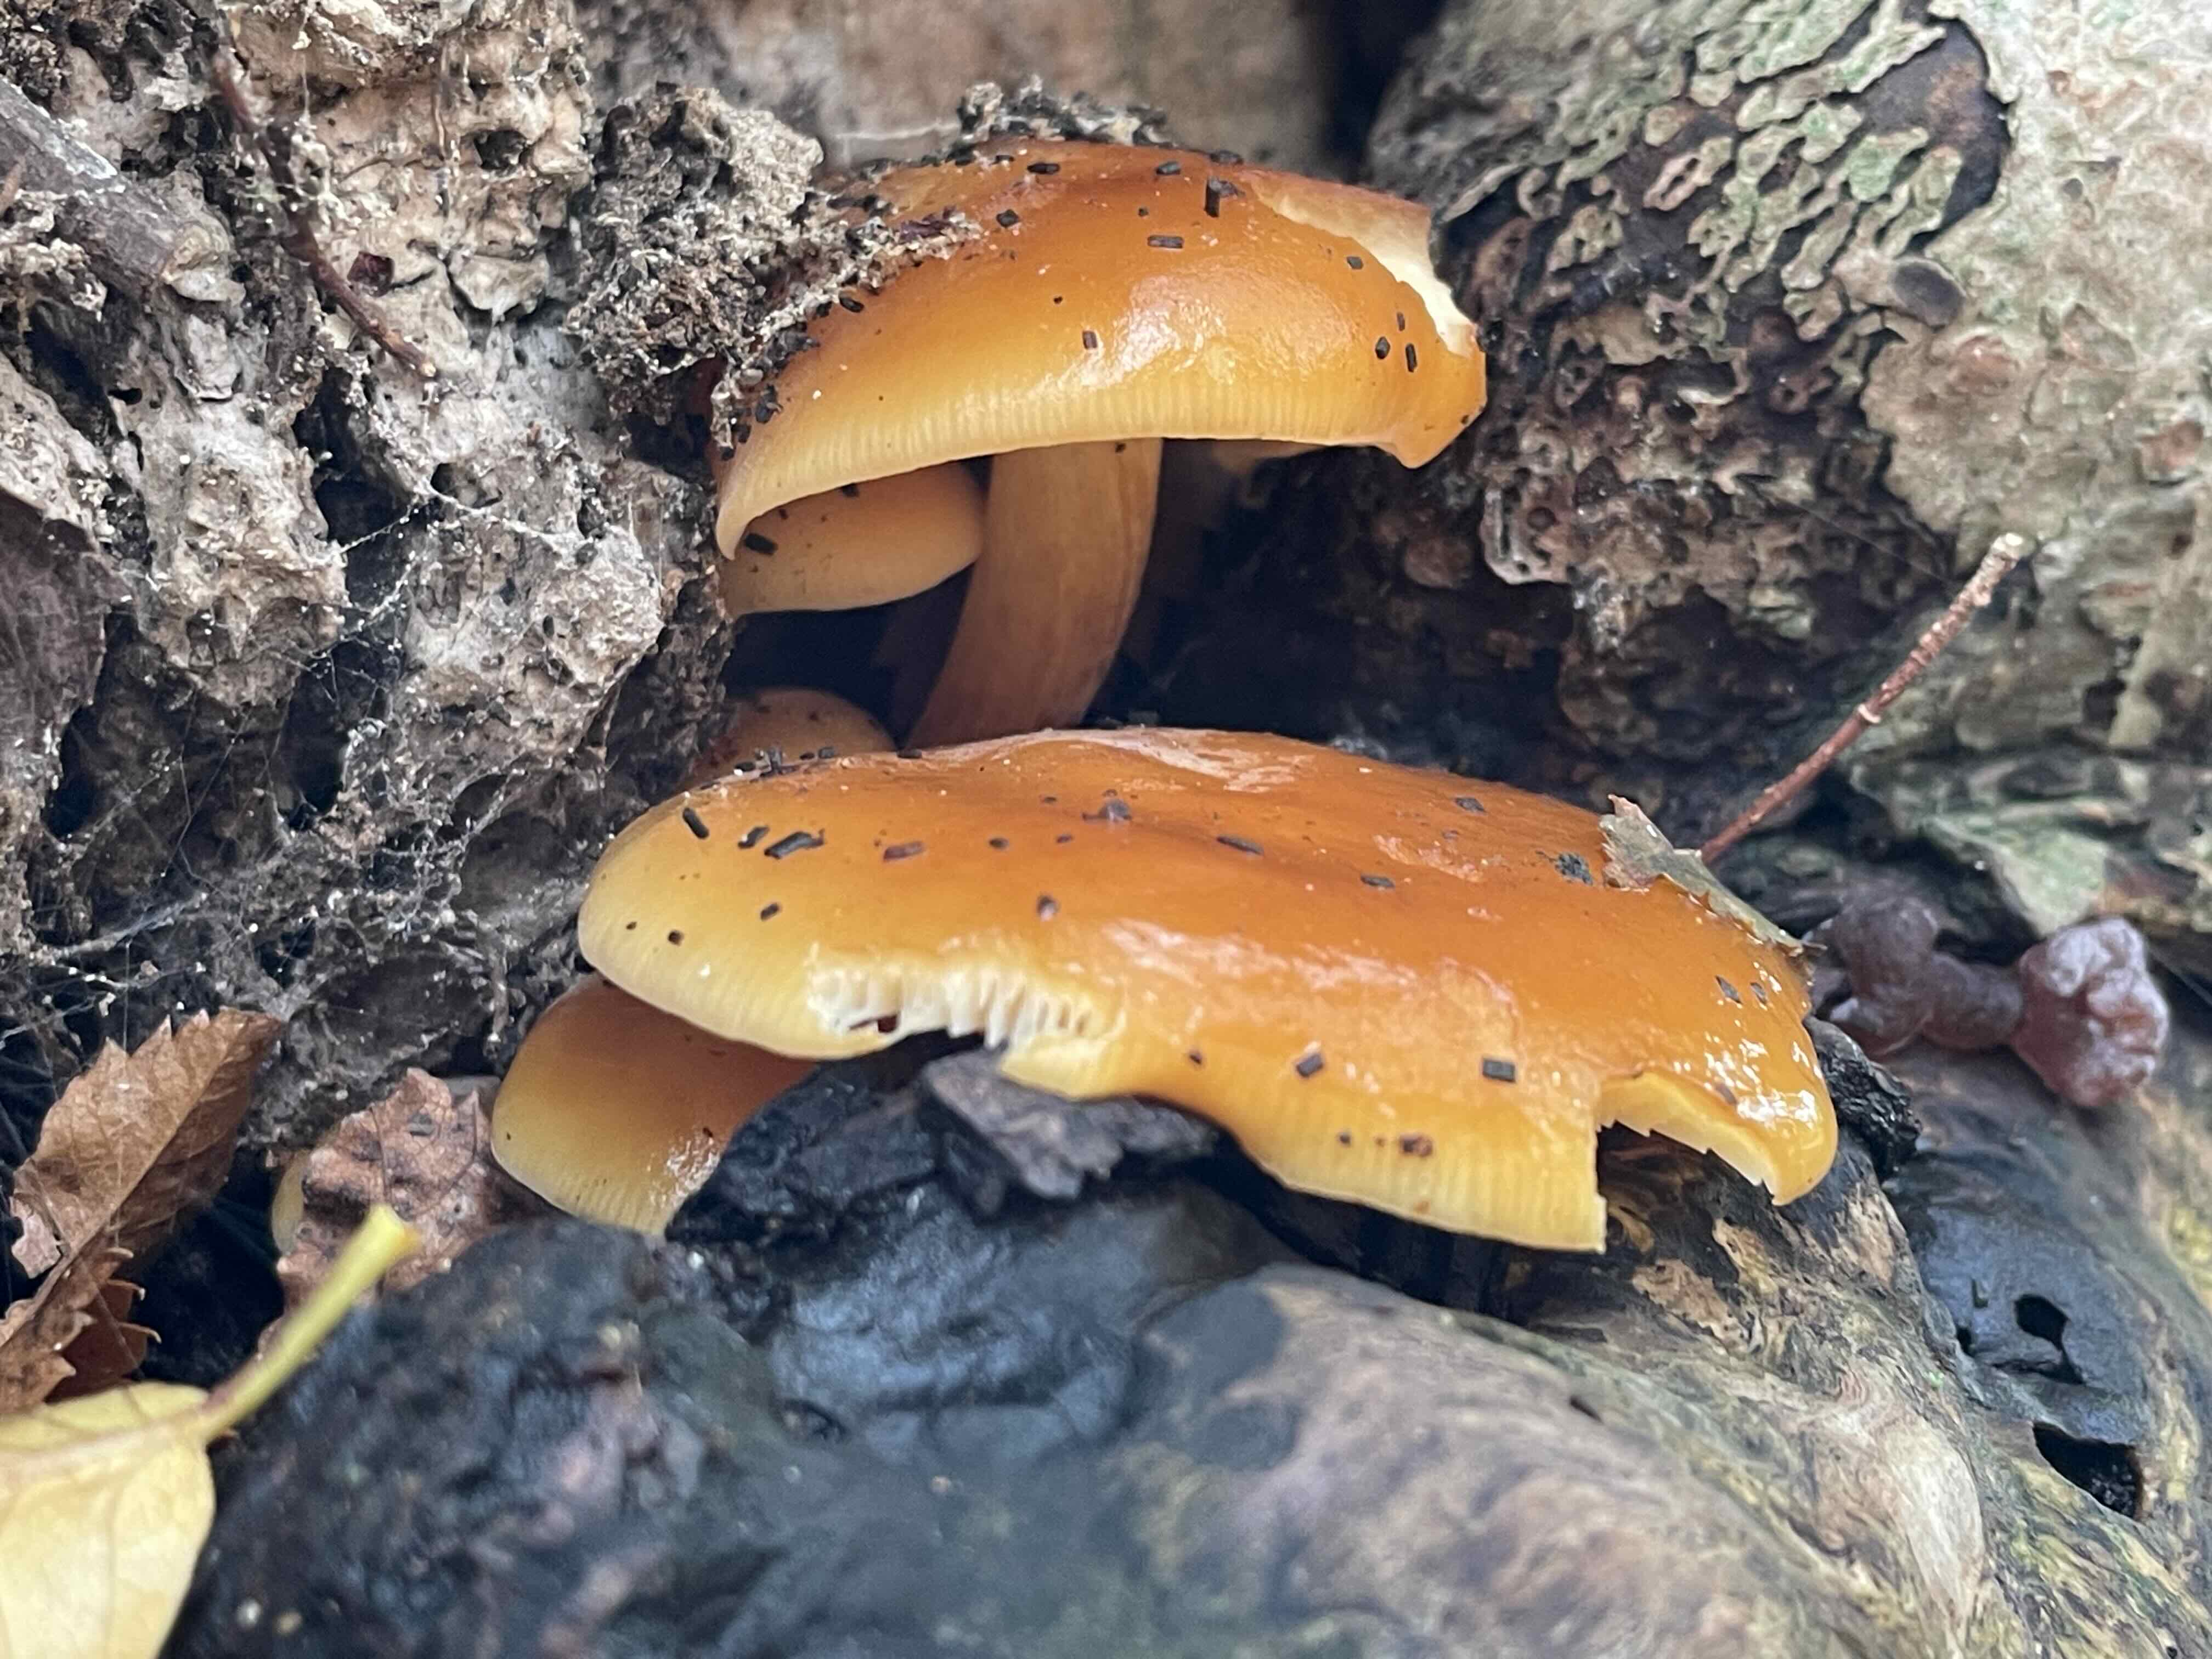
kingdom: Fungi
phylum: Basidiomycota
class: Agaricomycetes
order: Agaricales
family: Physalacriaceae
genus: Flammulina
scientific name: Flammulina velutipes
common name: gul fløjlsfod
